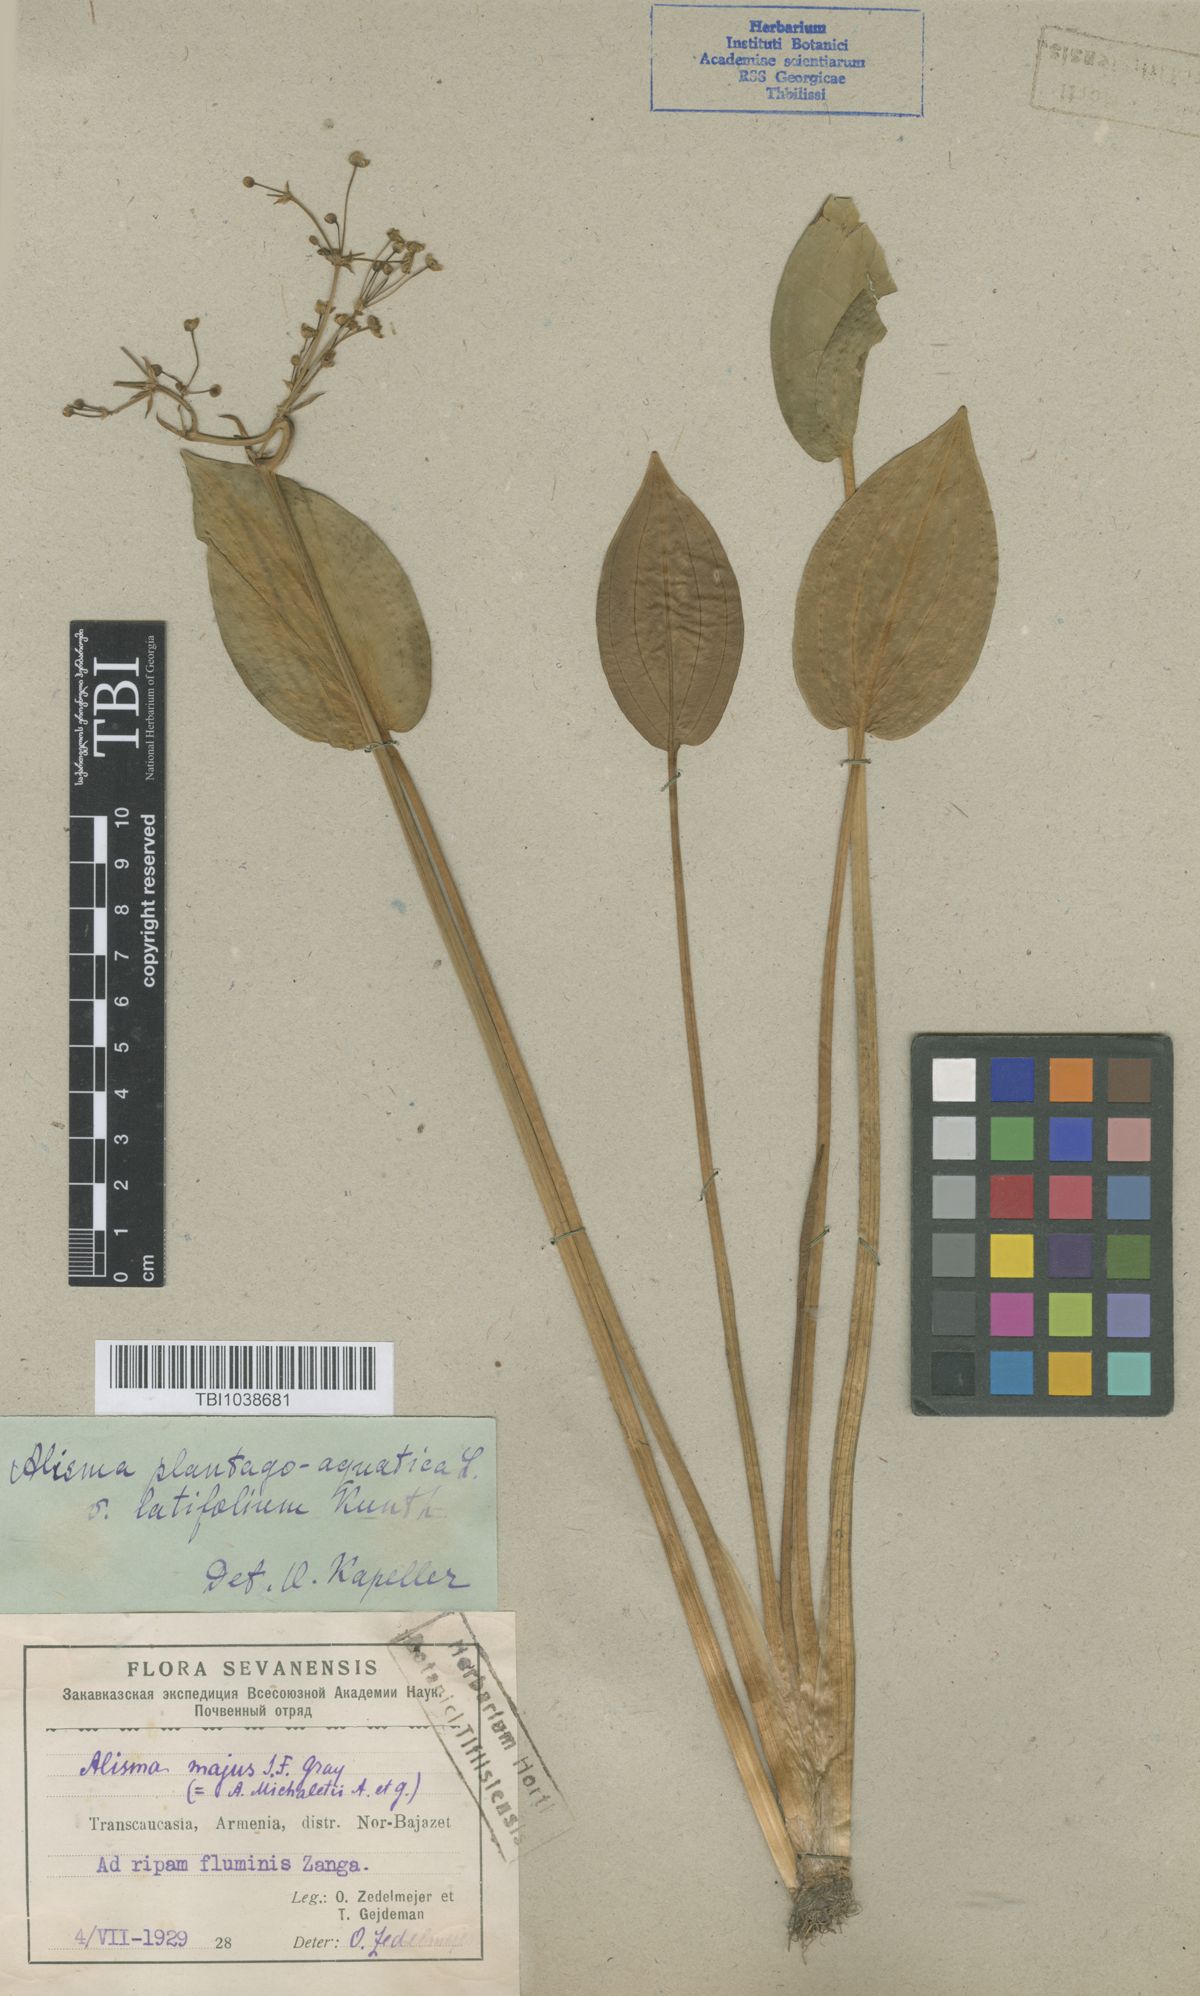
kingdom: Plantae
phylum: Tracheophyta
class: Liliopsida
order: Alismatales
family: Alismataceae
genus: Alisma
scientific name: Alisma plantago-aquatica
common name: Water-plantain
